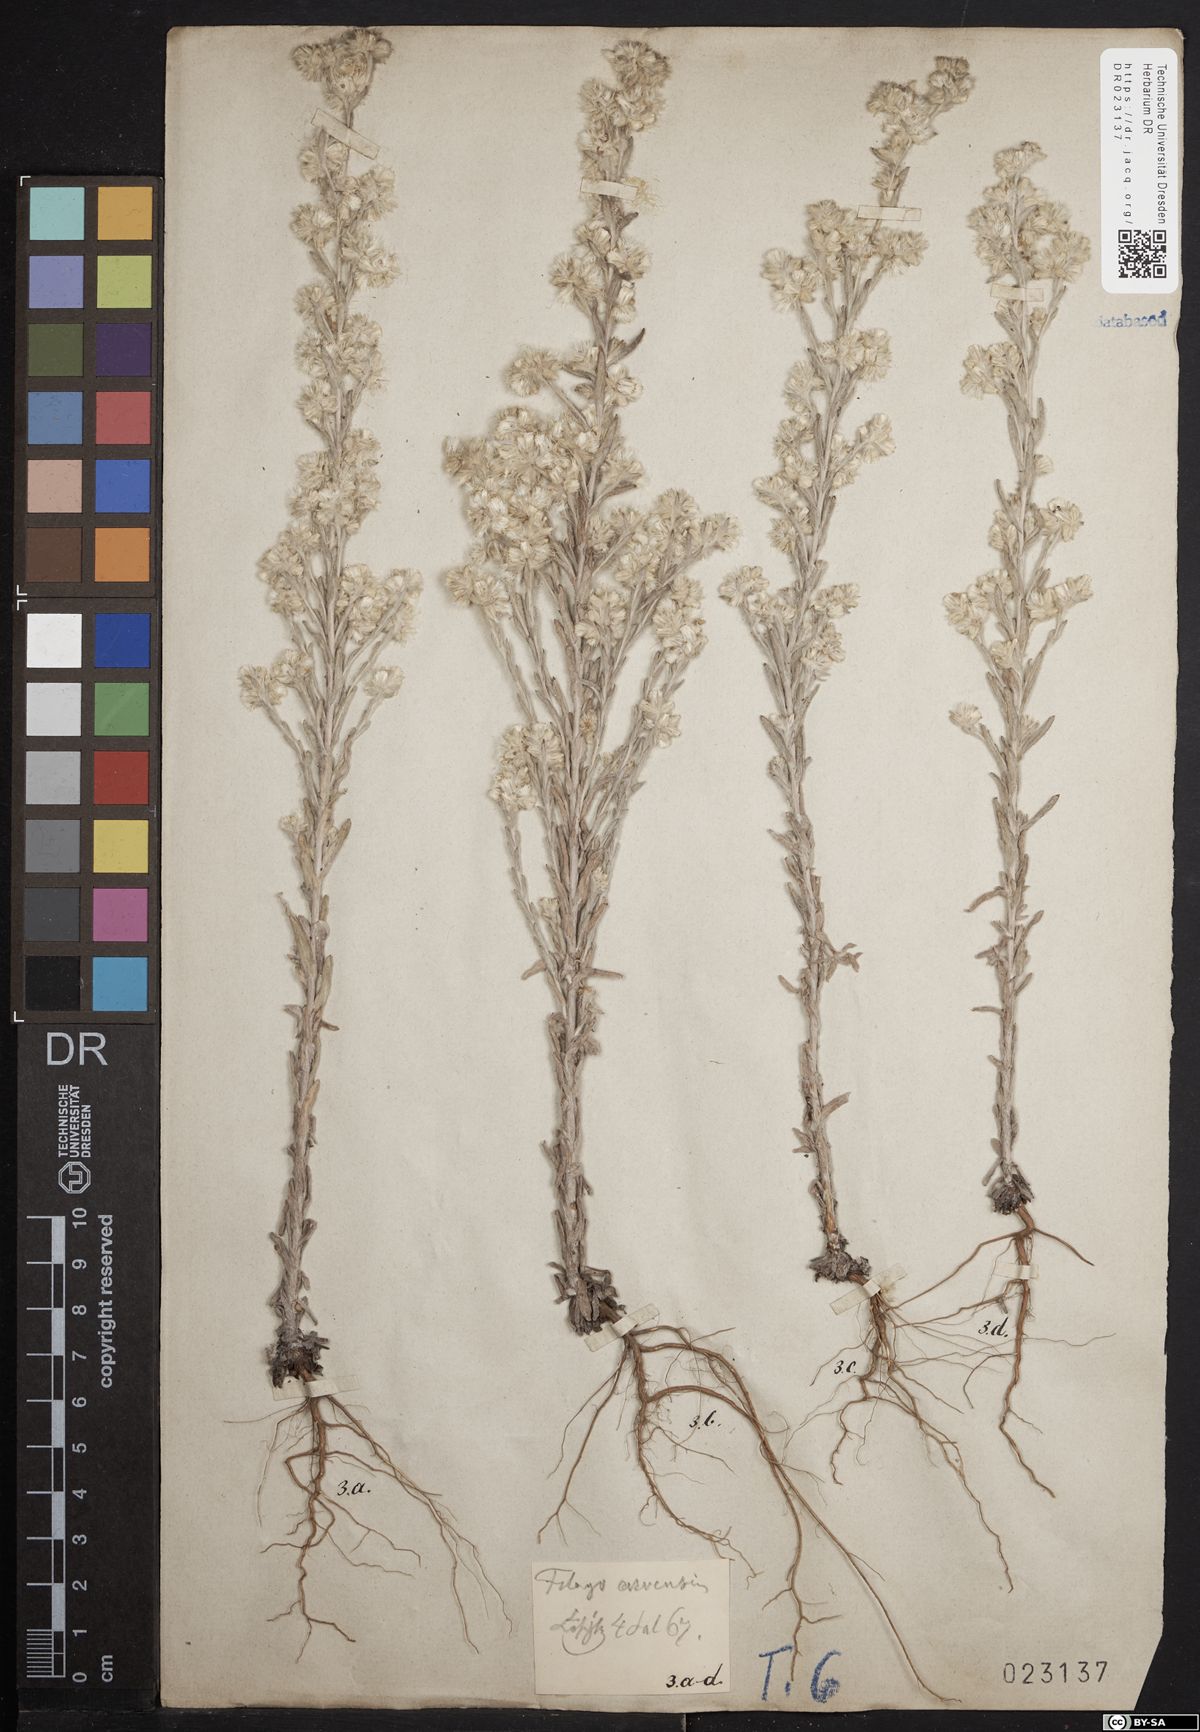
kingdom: Plantae
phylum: Tracheophyta
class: Magnoliopsida
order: Asterales
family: Asteraceae
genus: Filago
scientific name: Filago arvensis
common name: Field cudweed
